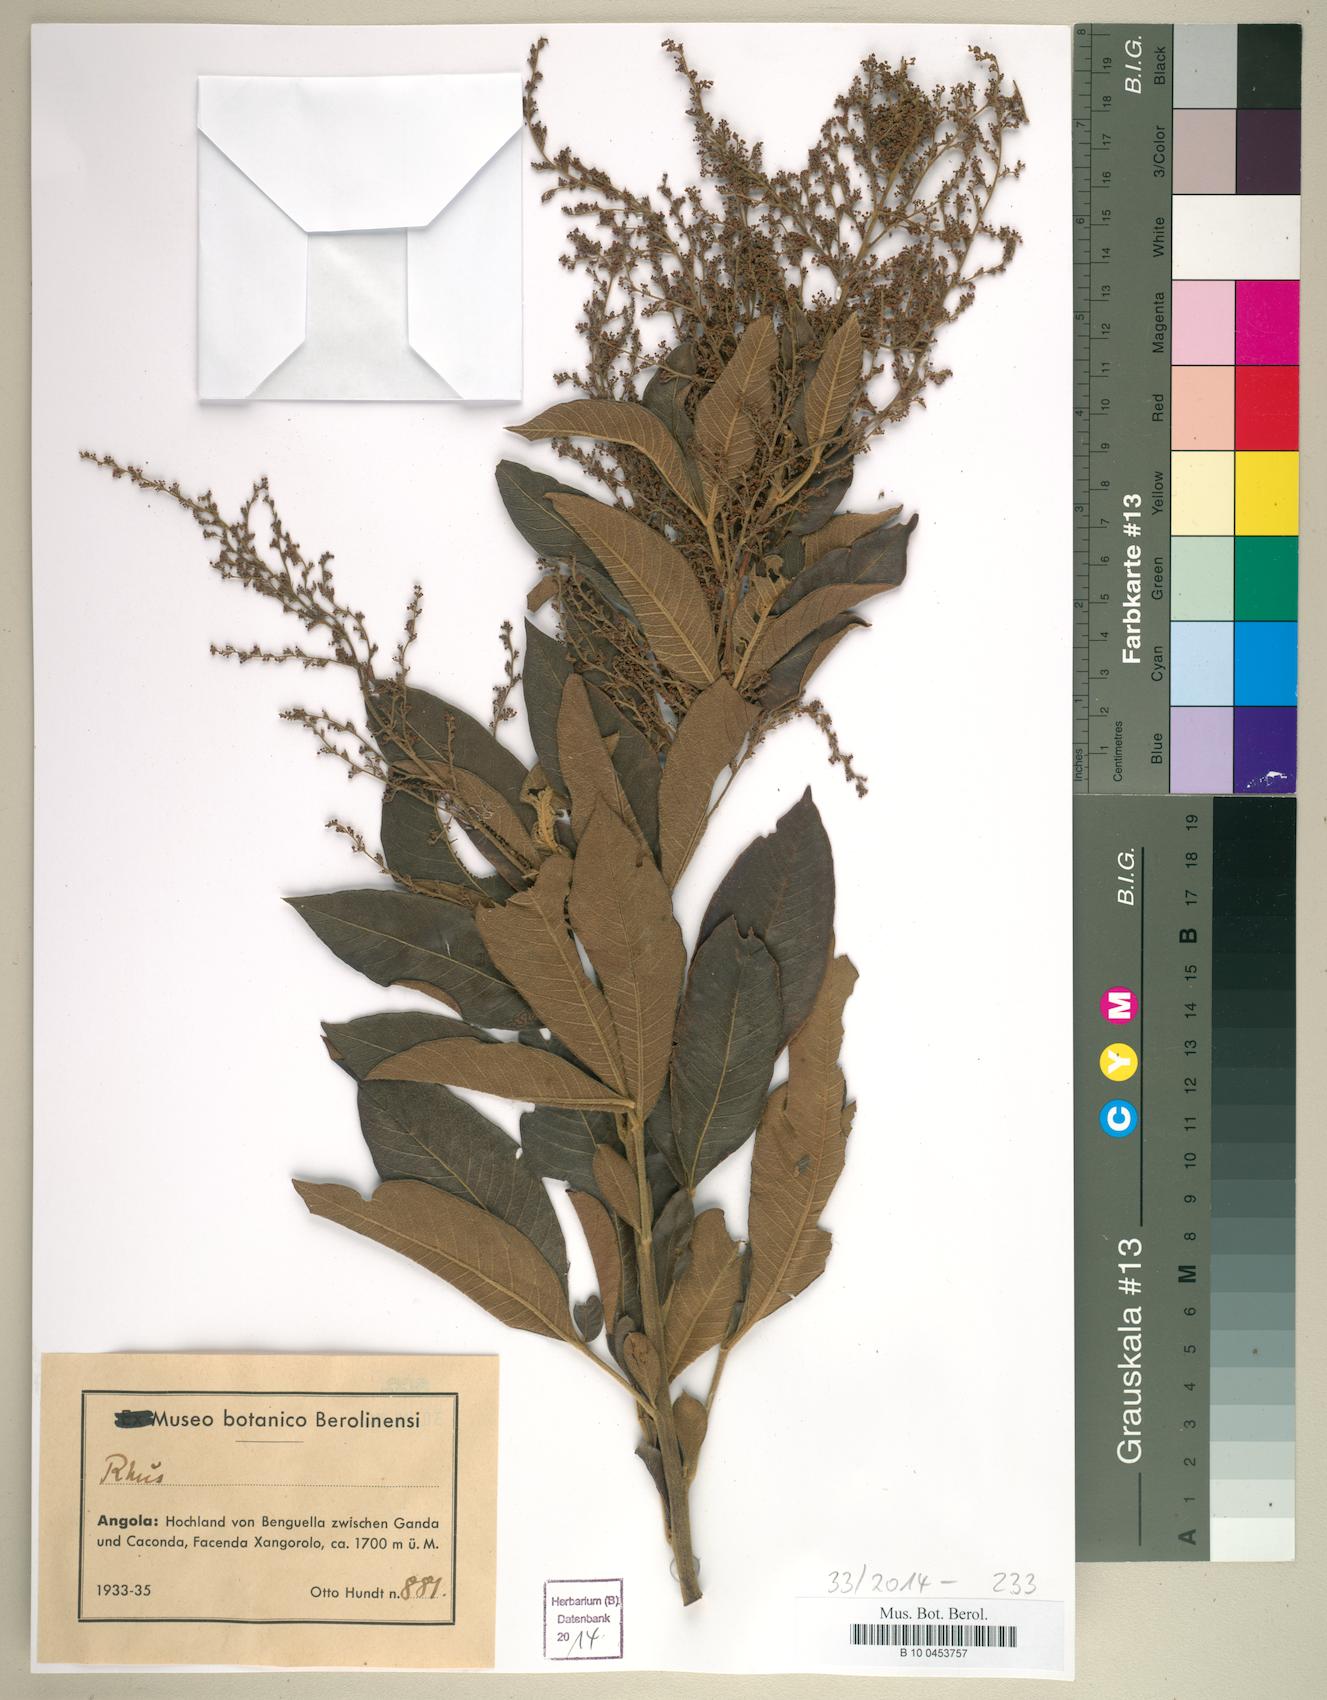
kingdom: Plantae
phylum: Tracheophyta
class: Magnoliopsida
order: Sapindales
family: Anacardiaceae
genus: Rhus
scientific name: Rhus
